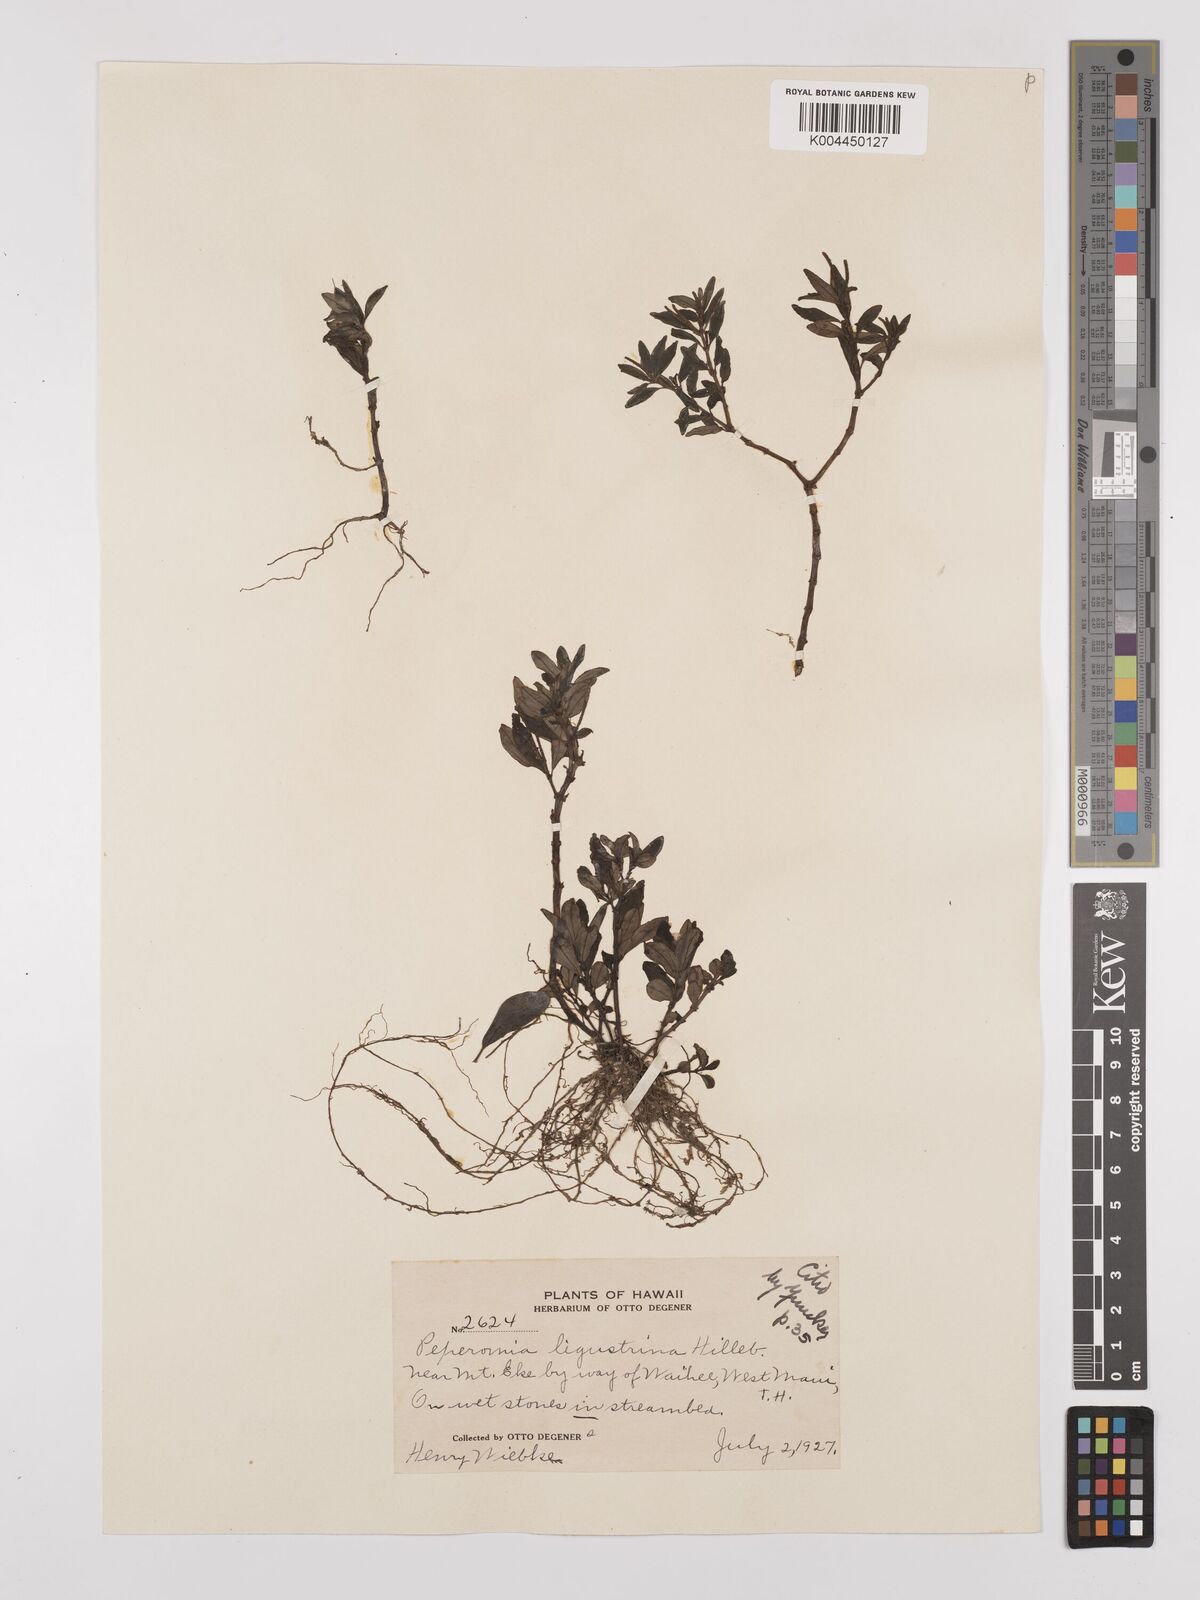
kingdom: Plantae
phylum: Tracheophyta
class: Magnoliopsida
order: Piperales
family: Piperaceae
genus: Peperomia
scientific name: Peperomia ligustrina
